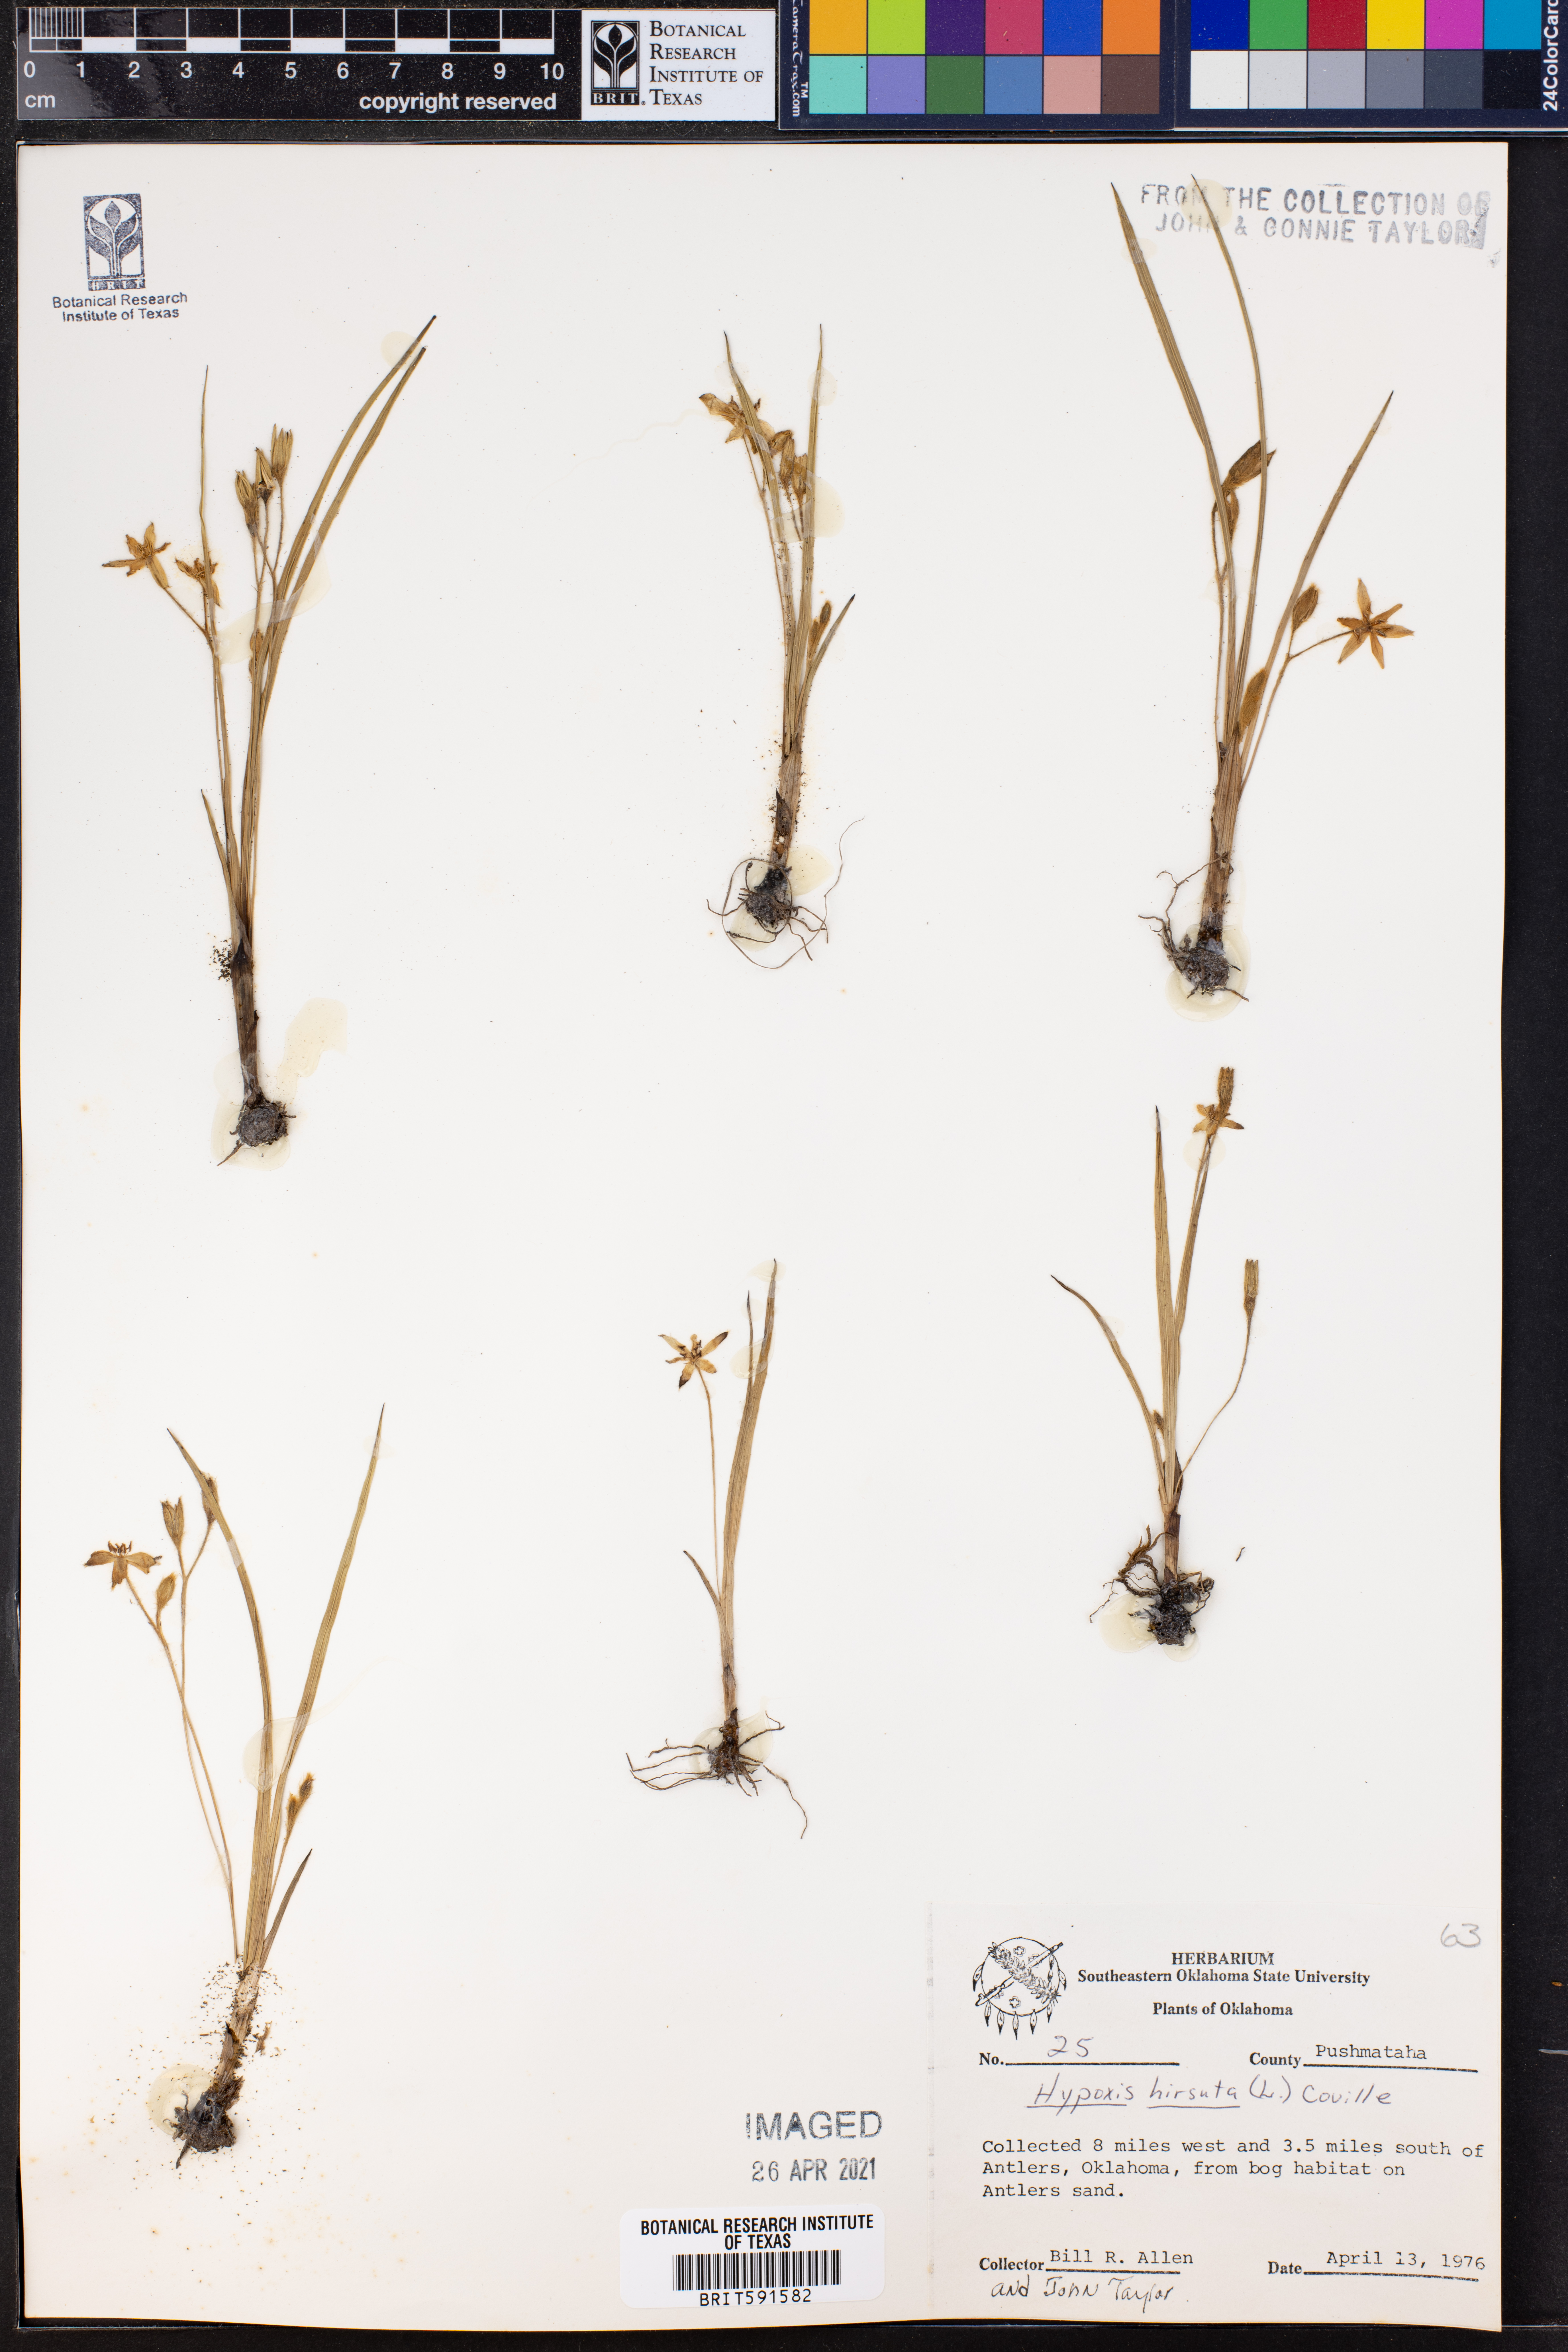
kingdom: Plantae
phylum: Tracheophyta
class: Liliopsida
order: Asparagales
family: Hypoxidaceae
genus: Hypoxis
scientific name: Hypoxis hirsuta
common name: Common goldstar
